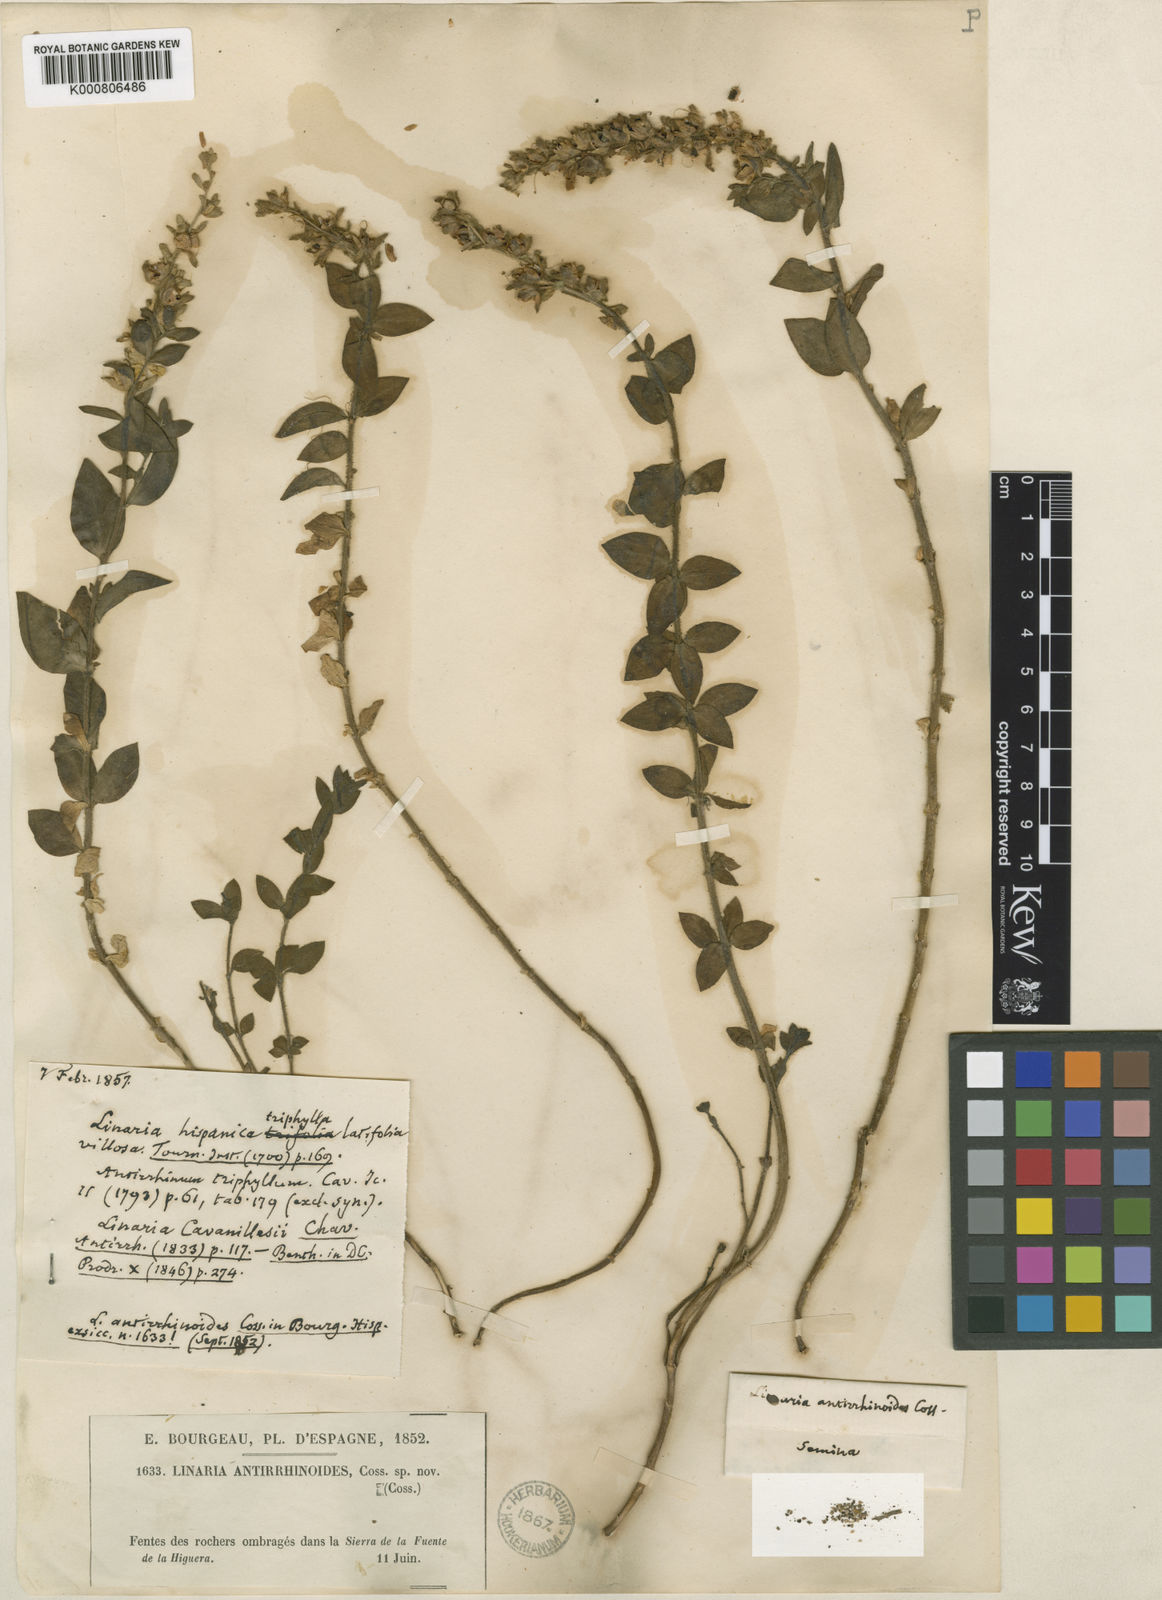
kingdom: Plantae
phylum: Tracheophyta
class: Magnoliopsida
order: Lamiales
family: Plantaginaceae
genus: Linaria
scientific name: Linaria cavanillesii
